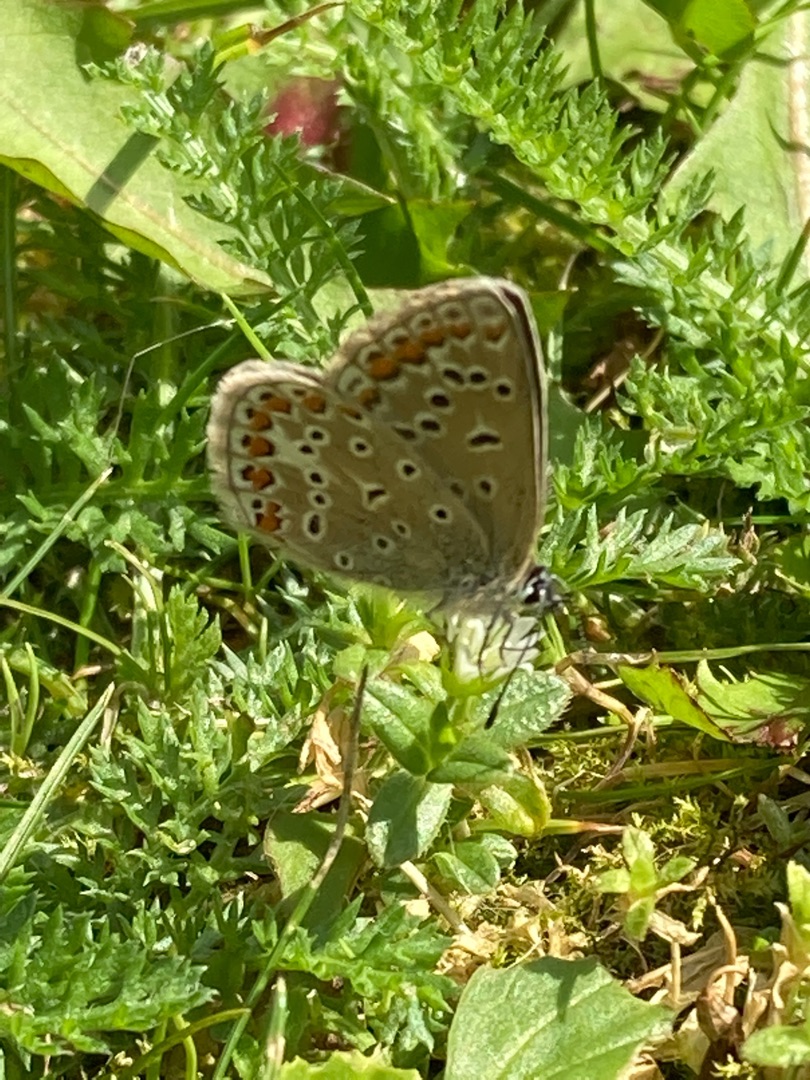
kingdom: Animalia
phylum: Arthropoda
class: Insecta
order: Lepidoptera
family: Lycaenidae
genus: Polyommatus
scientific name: Polyommatus icarus
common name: Almindelig blåfugl
